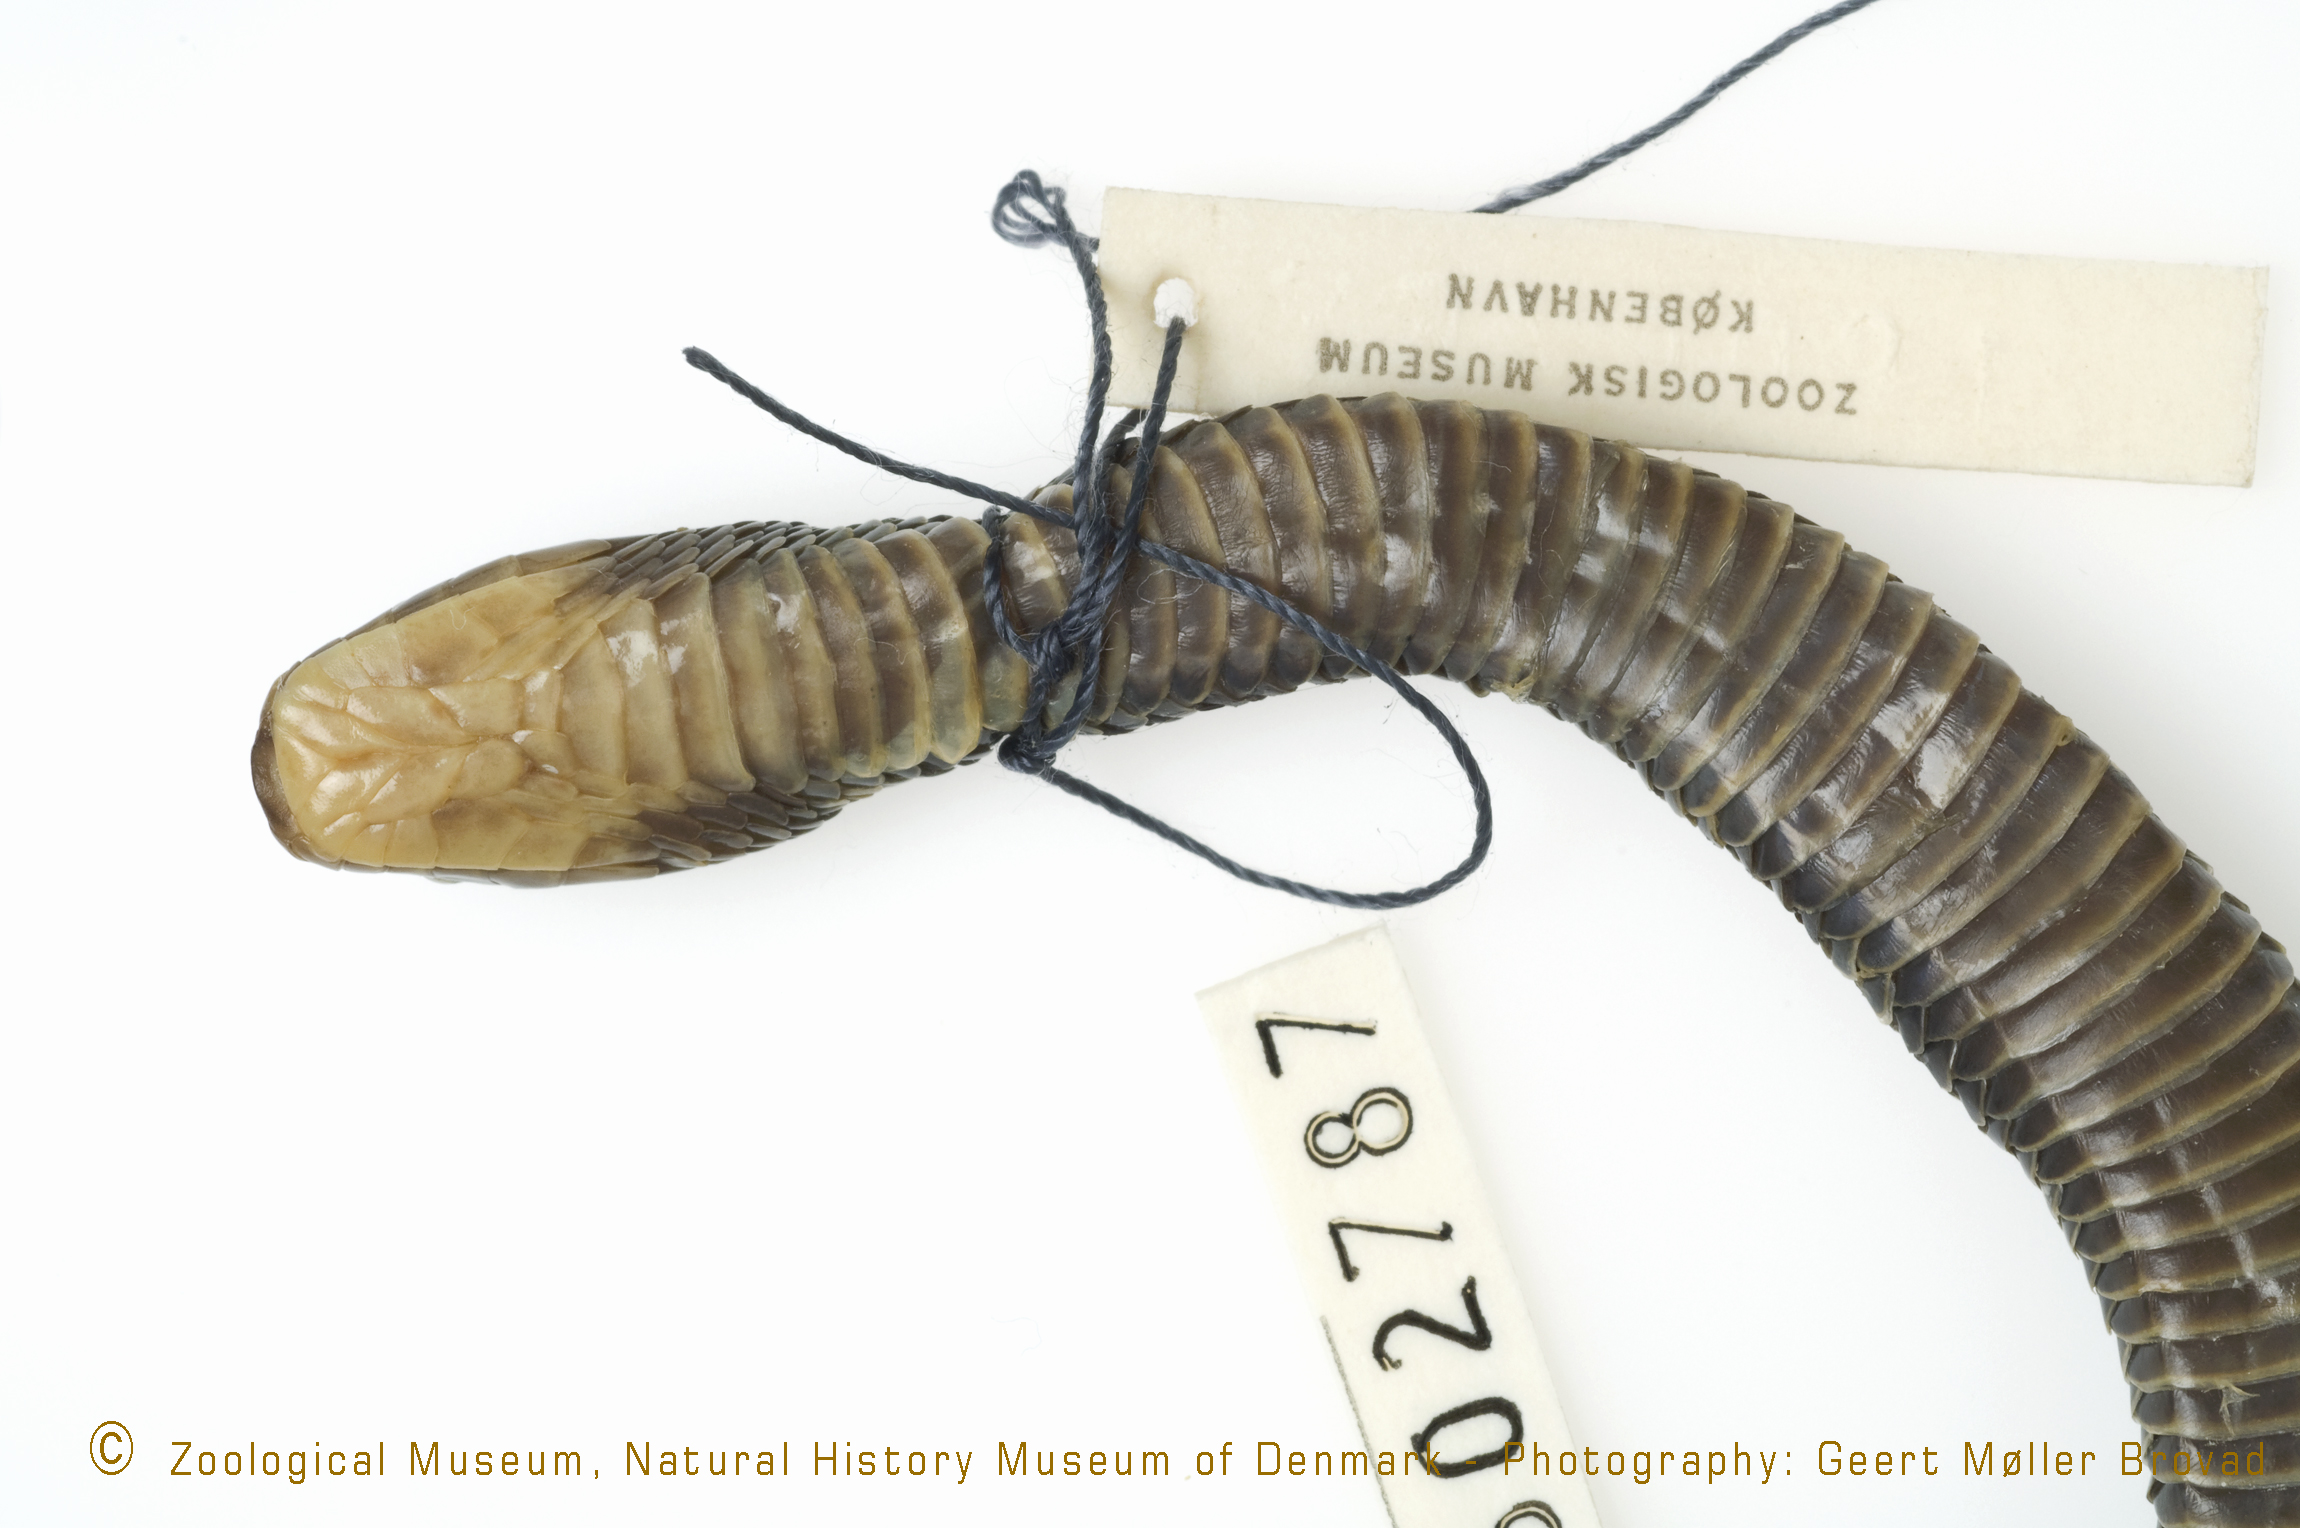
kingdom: Animalia
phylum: Chordata
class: Squamata
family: Colubridae
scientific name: Colubridae
